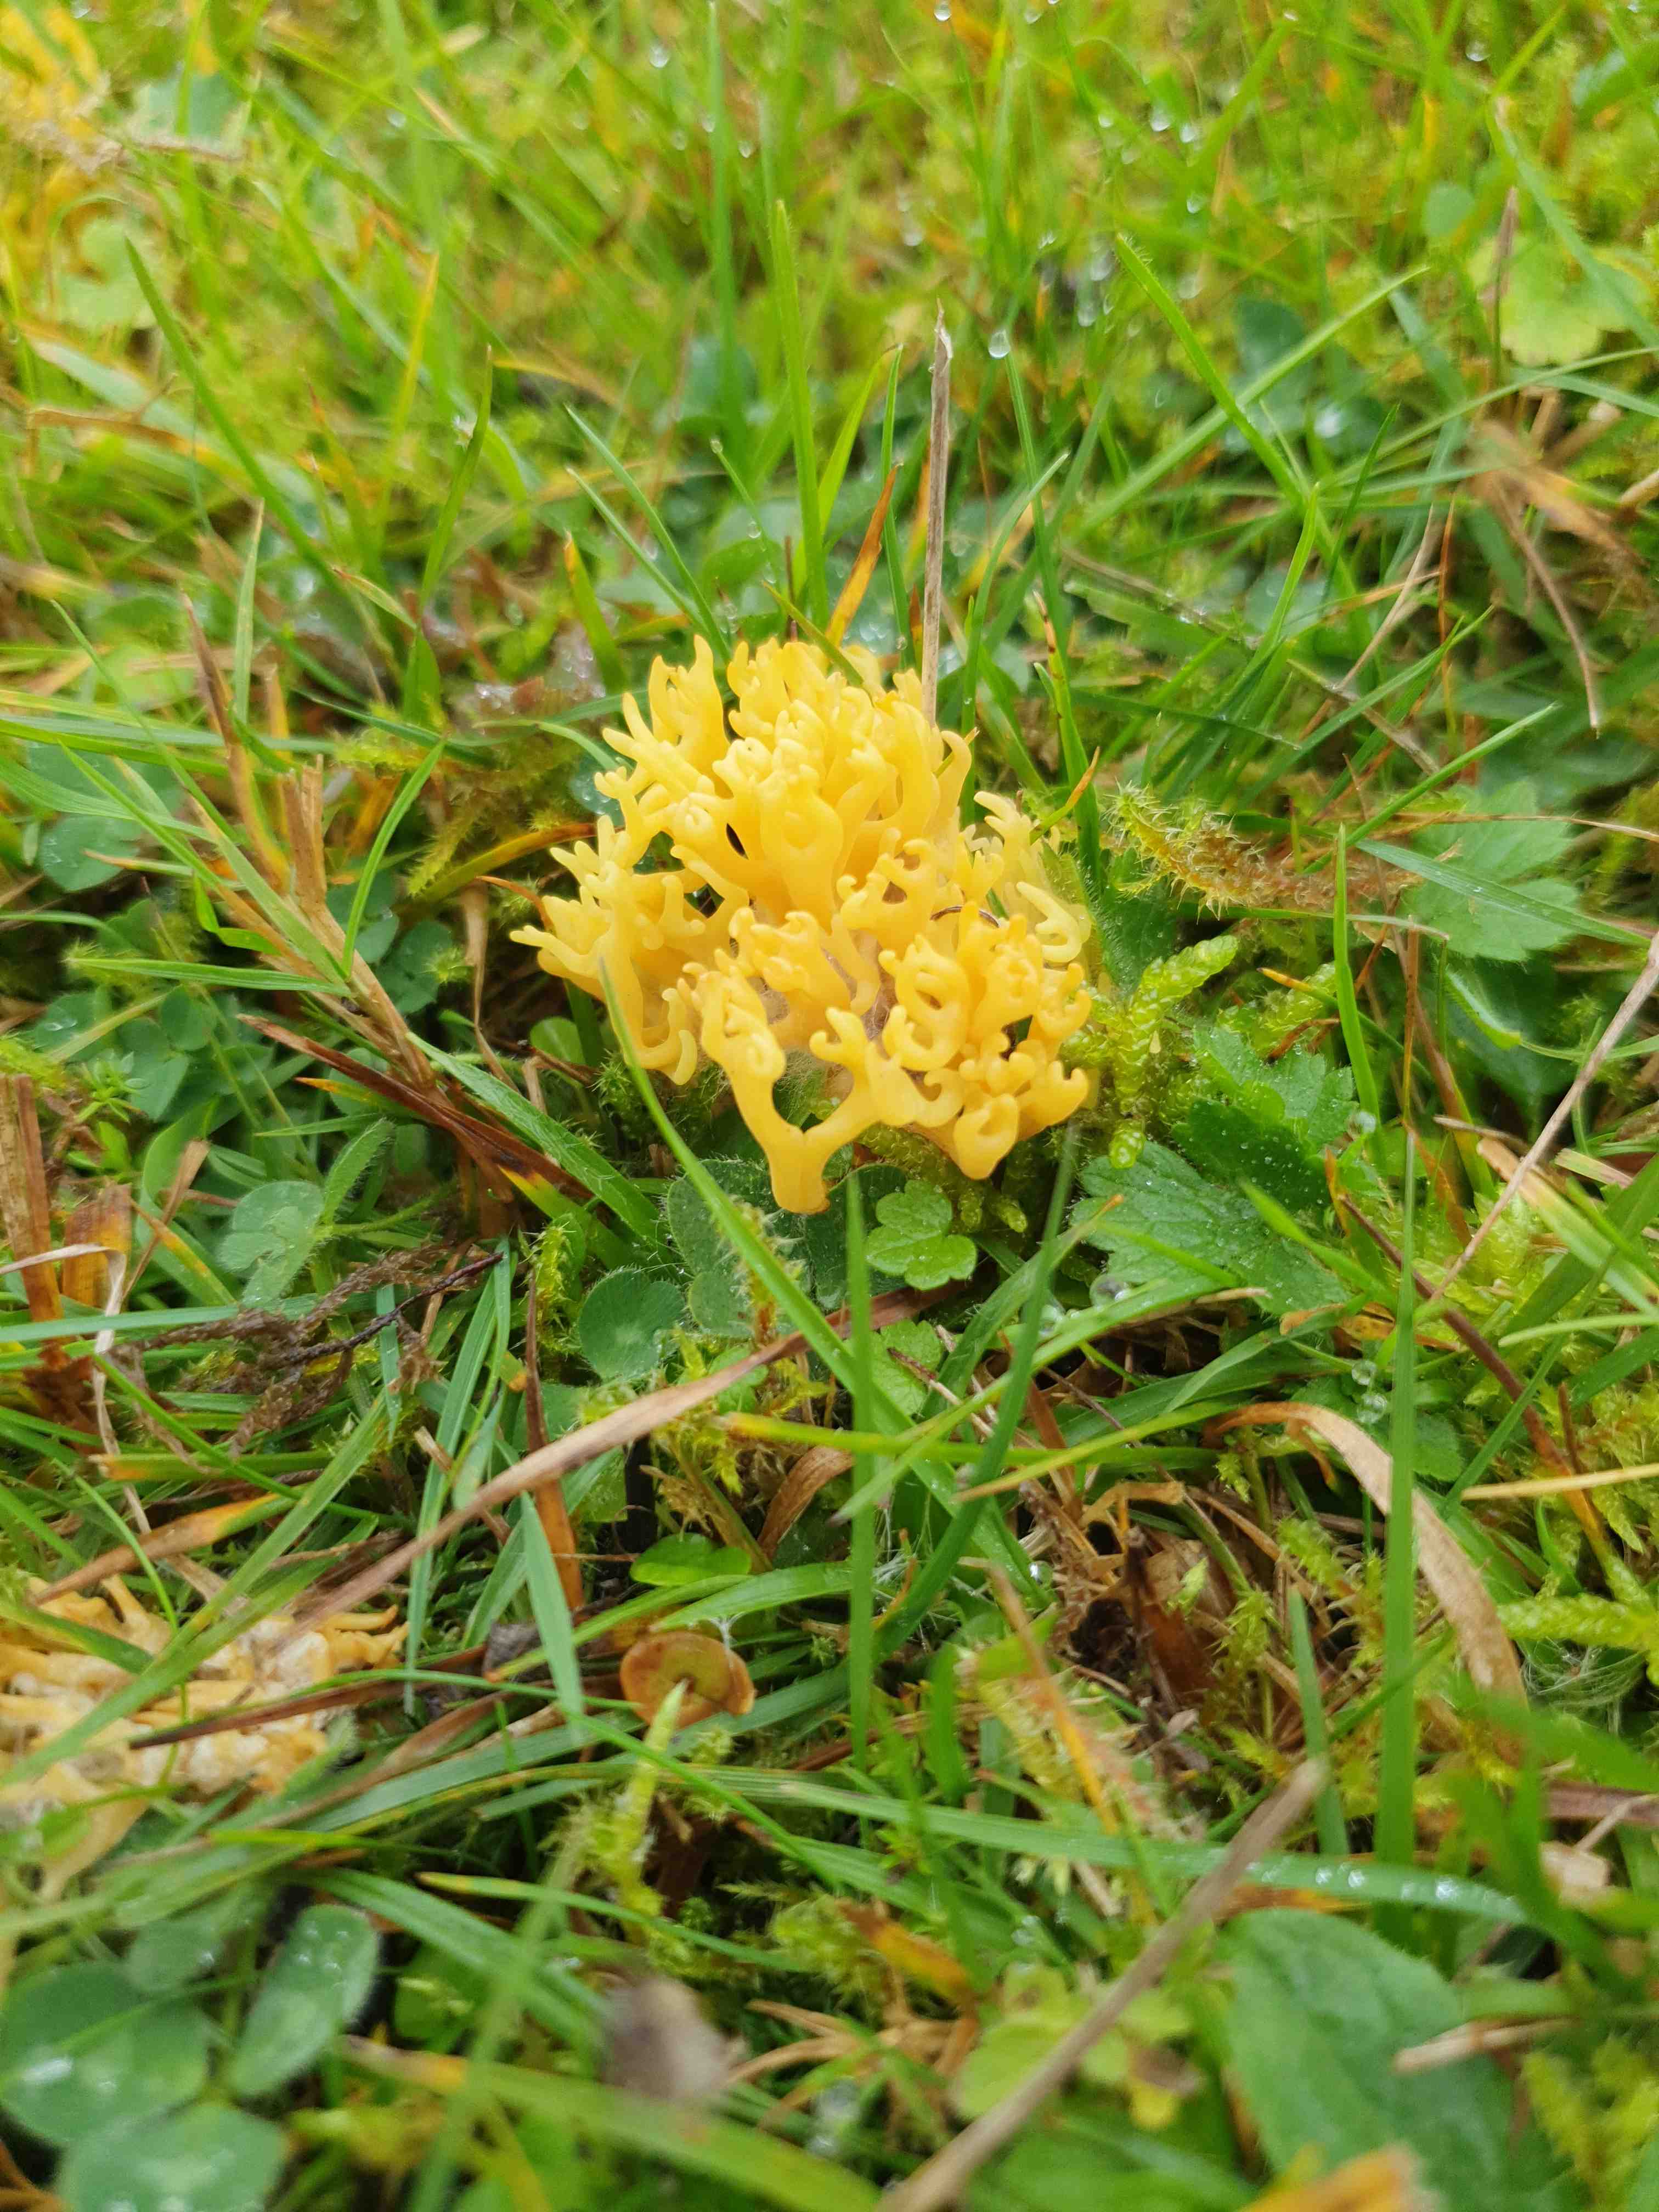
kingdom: Fungi
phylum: Basidiomycota
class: Agaricomycetes
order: Agaricales
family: Clavariaceae
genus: Clavulinopsis
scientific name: Clavulinopsis corniculata
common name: eng-køllesvamp
